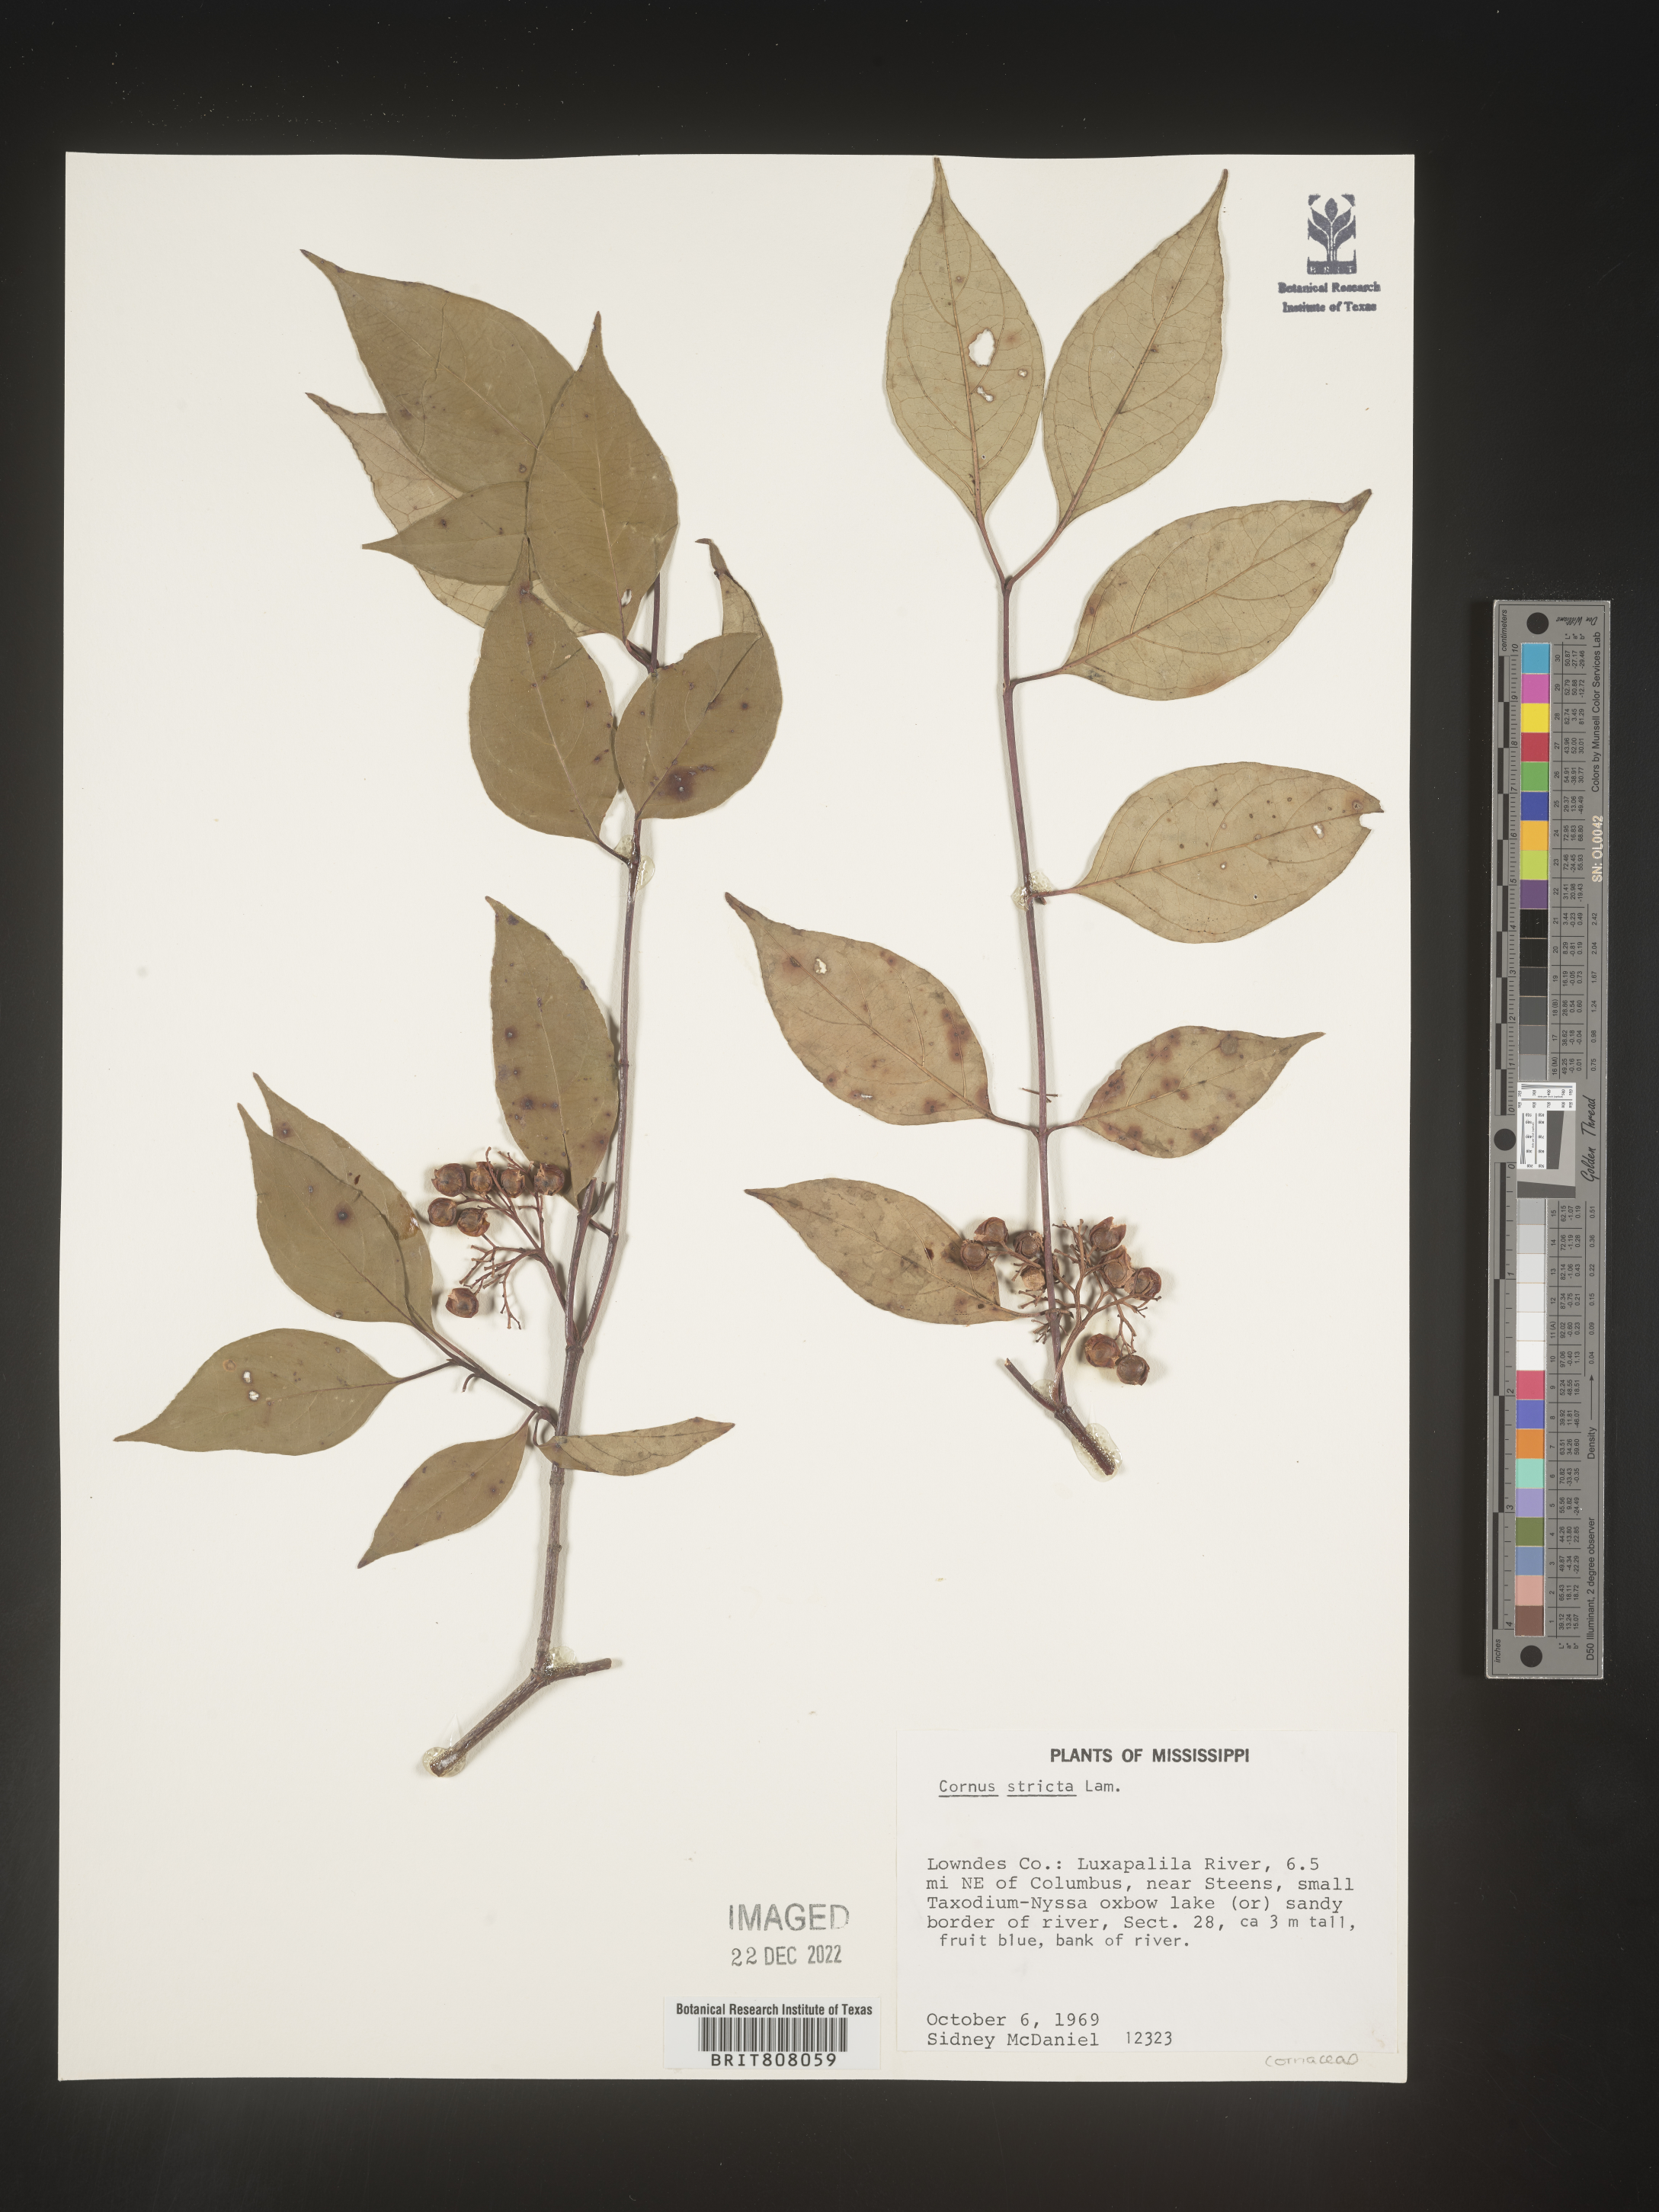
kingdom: Plantae
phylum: Tracheophyta
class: Magnoliopsida
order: Cornales
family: Cornaceae
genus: Cornus
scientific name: Cornus foemina
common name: Swamp dogwood
